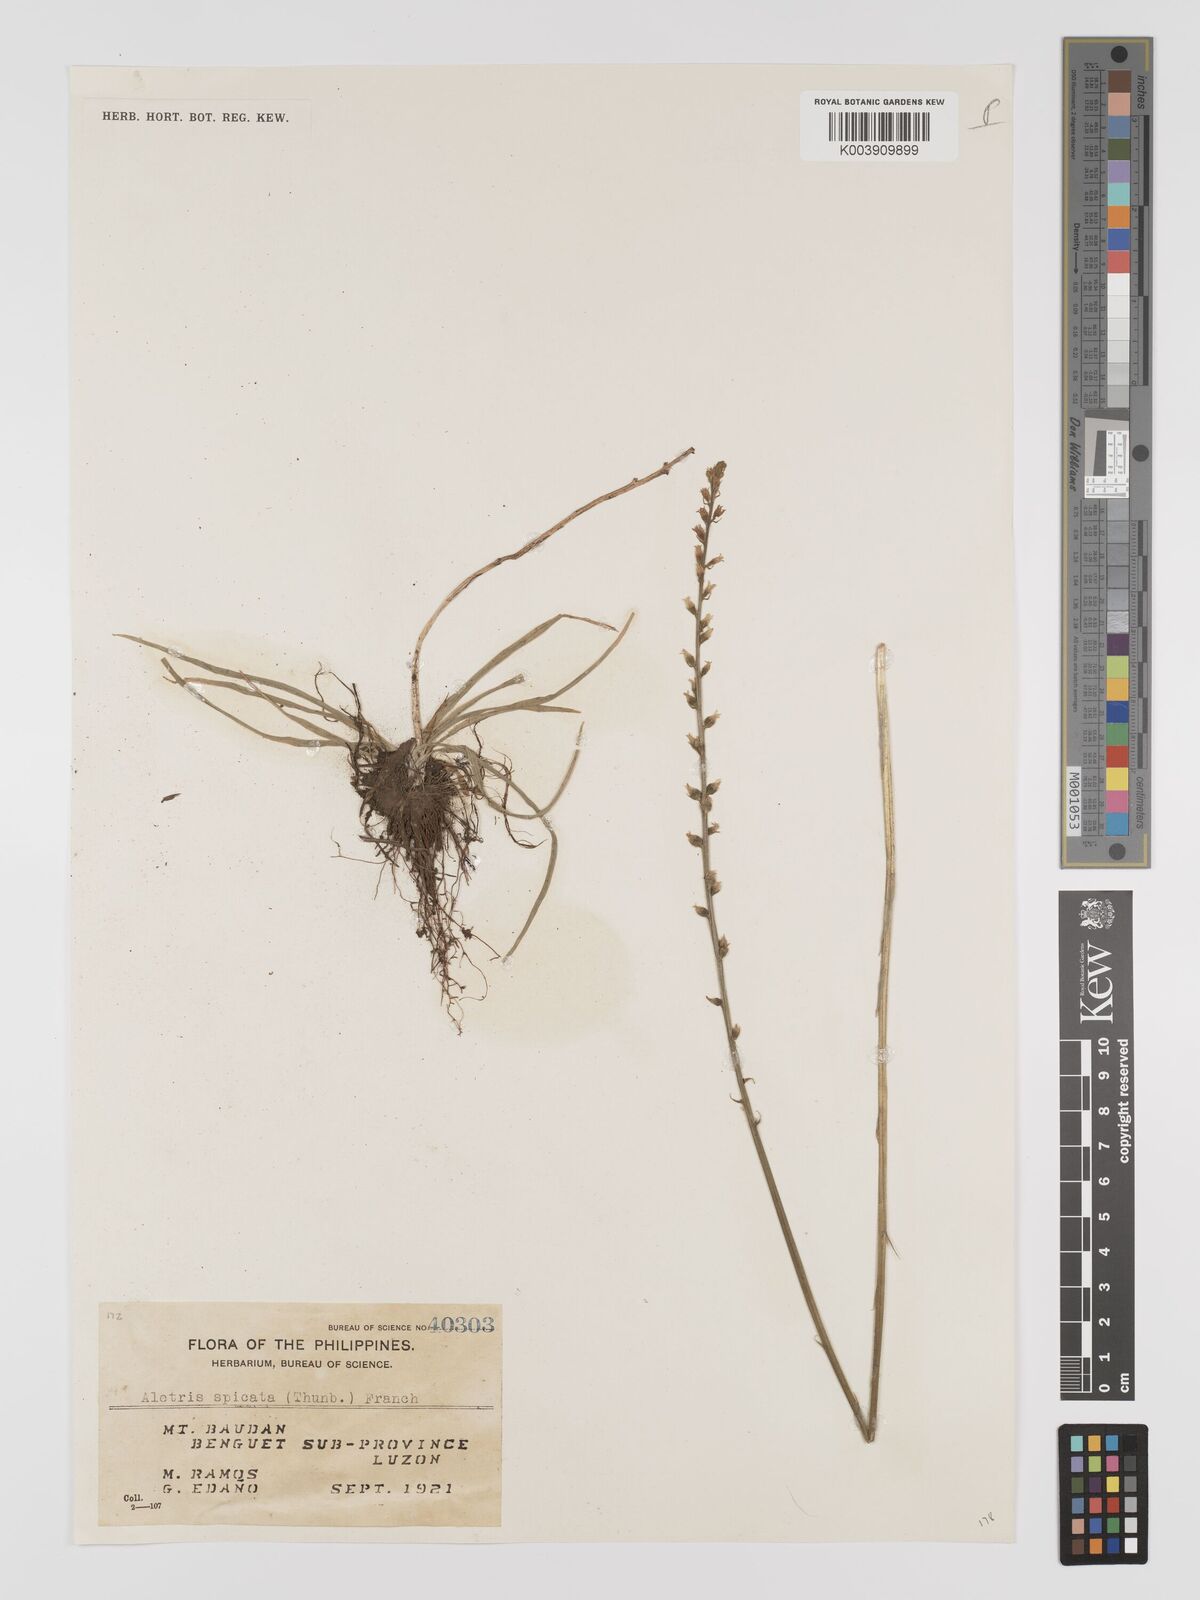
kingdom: Plantae
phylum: Tracheophyta
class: Liliopsida
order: Dioscoreales
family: Nartheciaceae
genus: Aletris
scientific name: Aletris spicata
